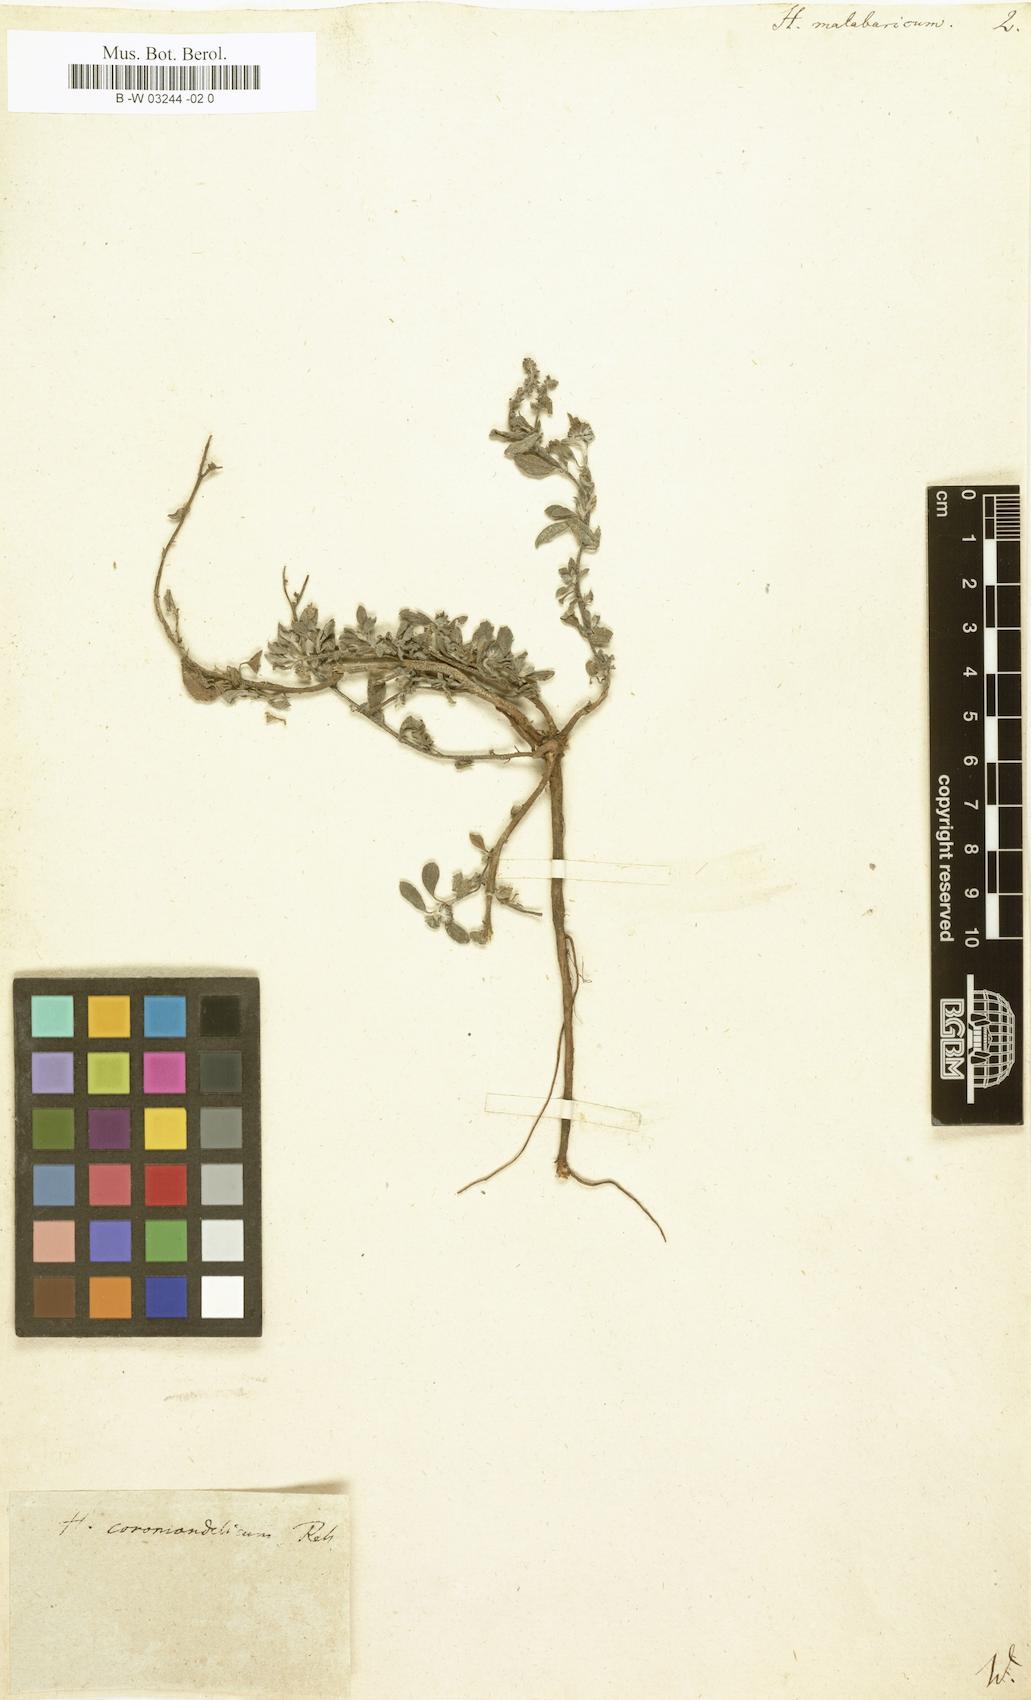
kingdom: Plantae
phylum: Tracheophyta
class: Magnoliopsida
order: Boraginales
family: Heliotropiaceae
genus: Heliotropium
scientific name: Heliotropium supinum
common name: Dwarf heliotrope
